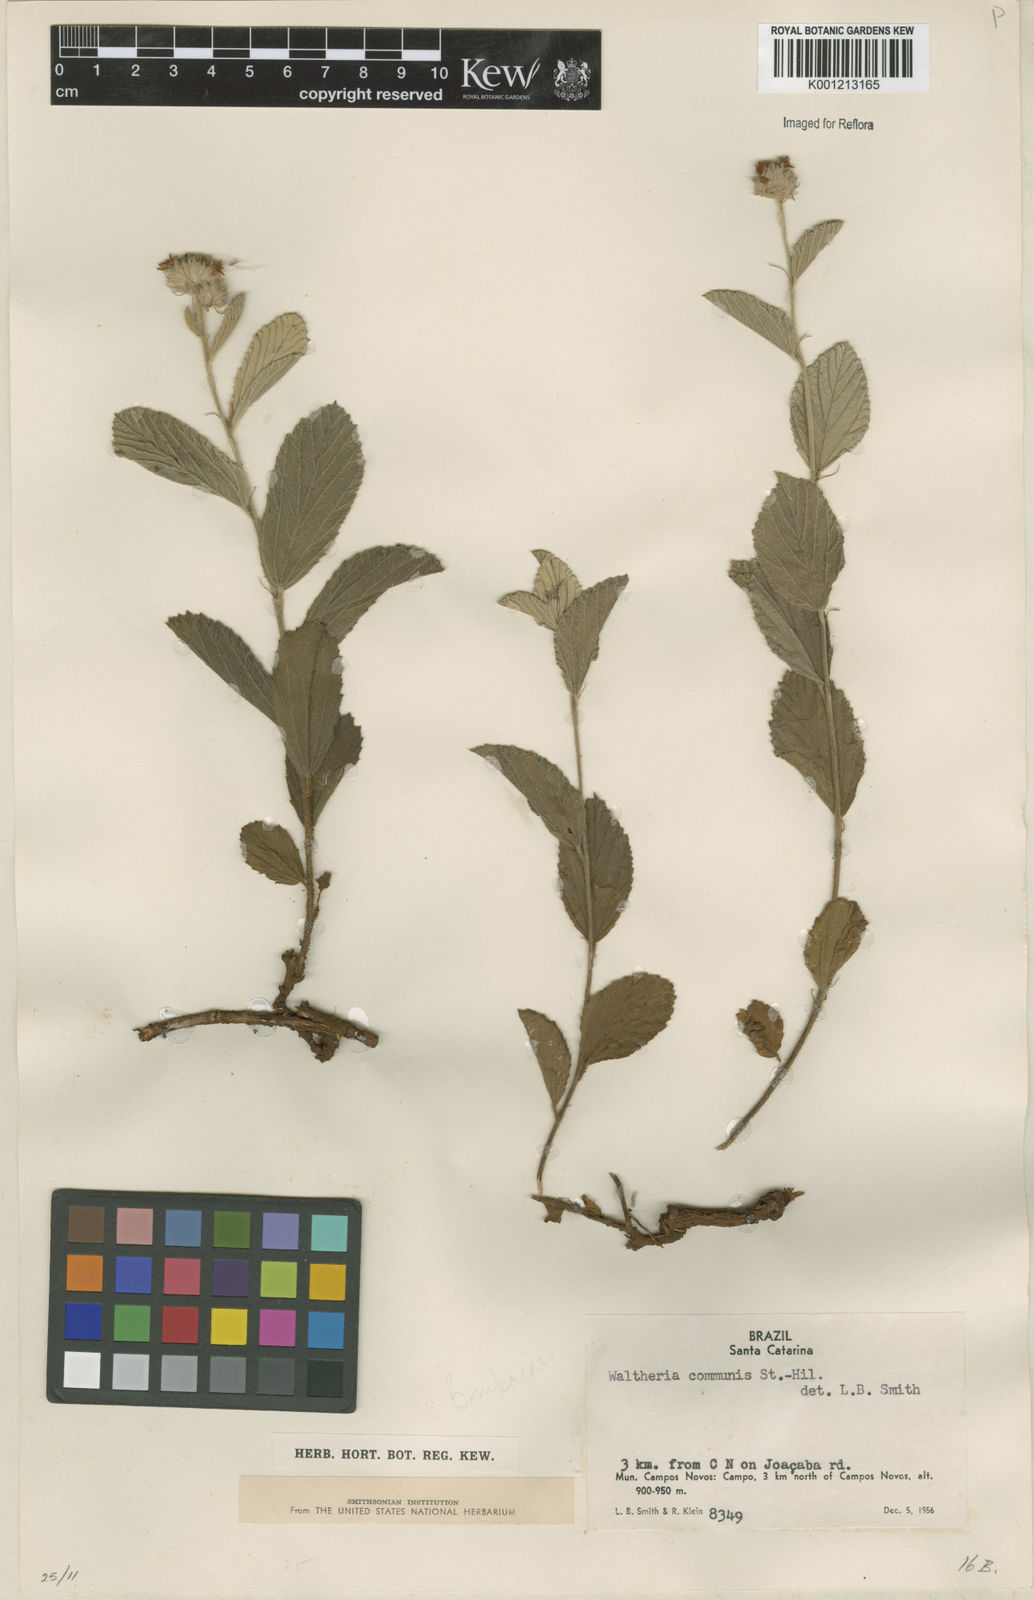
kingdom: Plantae
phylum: Tracheophyta
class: Magnoliopsida
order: Malvales
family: Malvaceae
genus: Waltheria
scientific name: Waltheria communis
